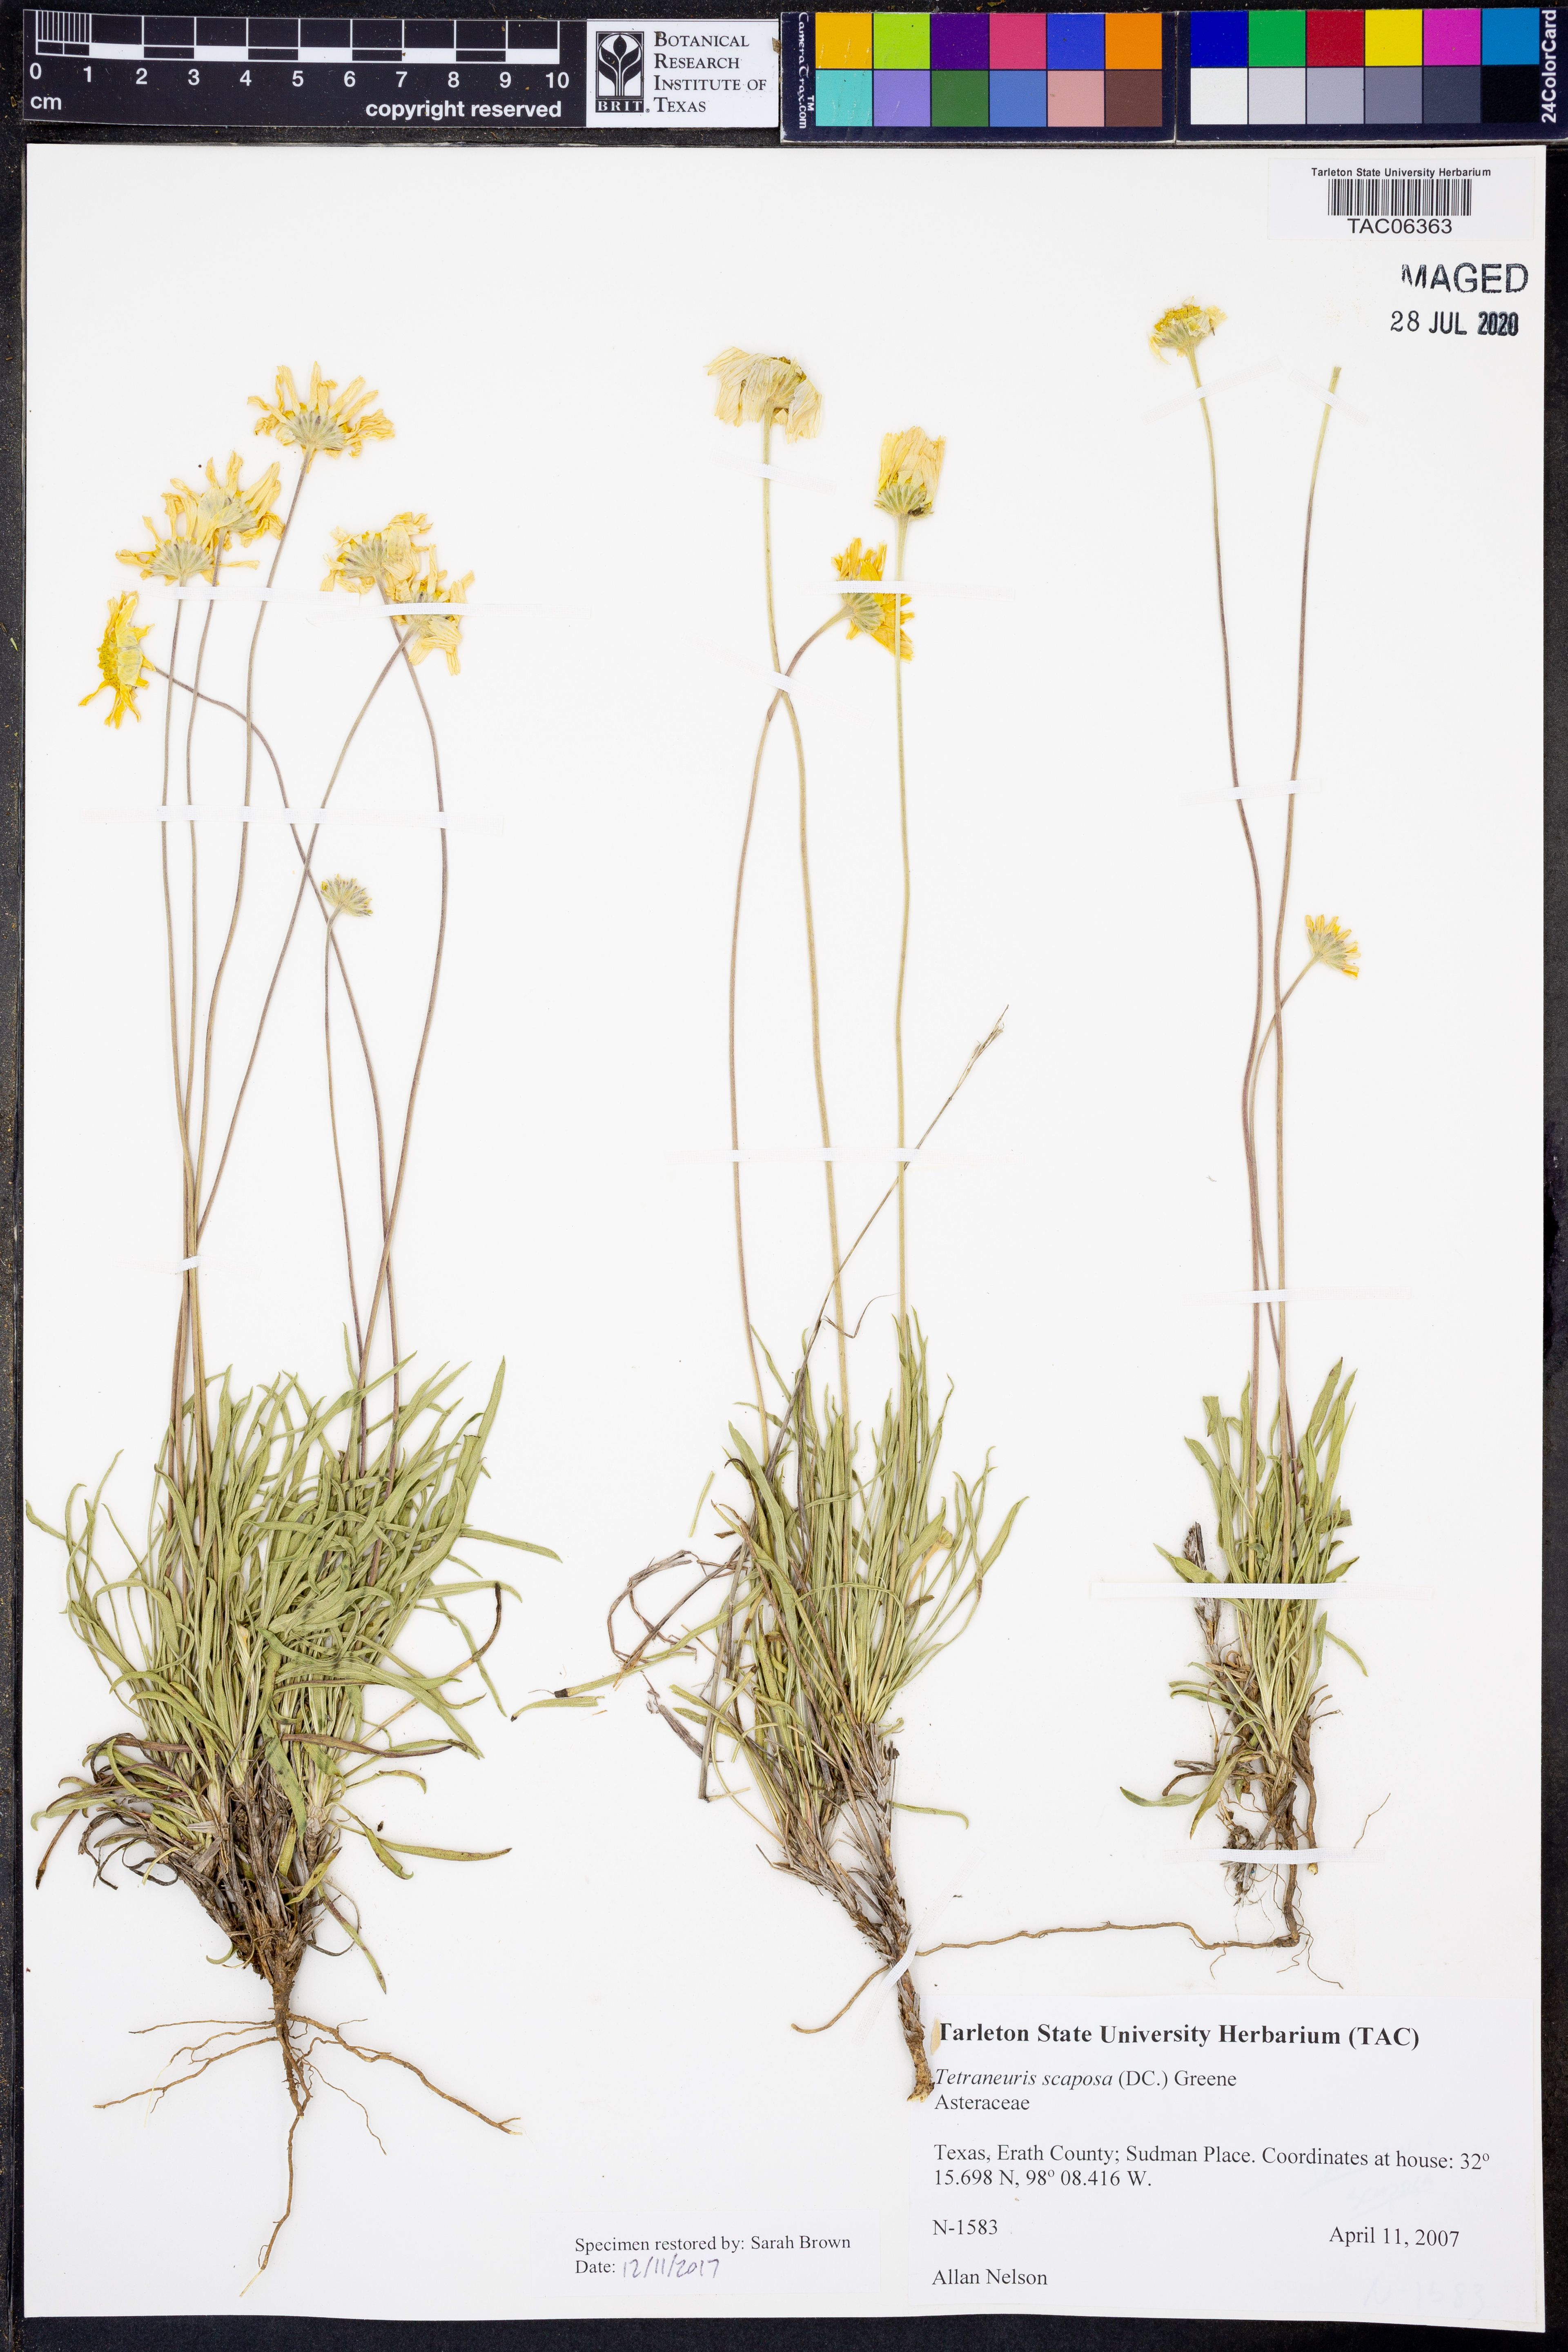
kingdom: Plantae
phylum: Tracheophyta
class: Magnoliopsida
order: Asterales
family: Asteraceae
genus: Tetraneuris
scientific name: Tetraneuris scaposa
